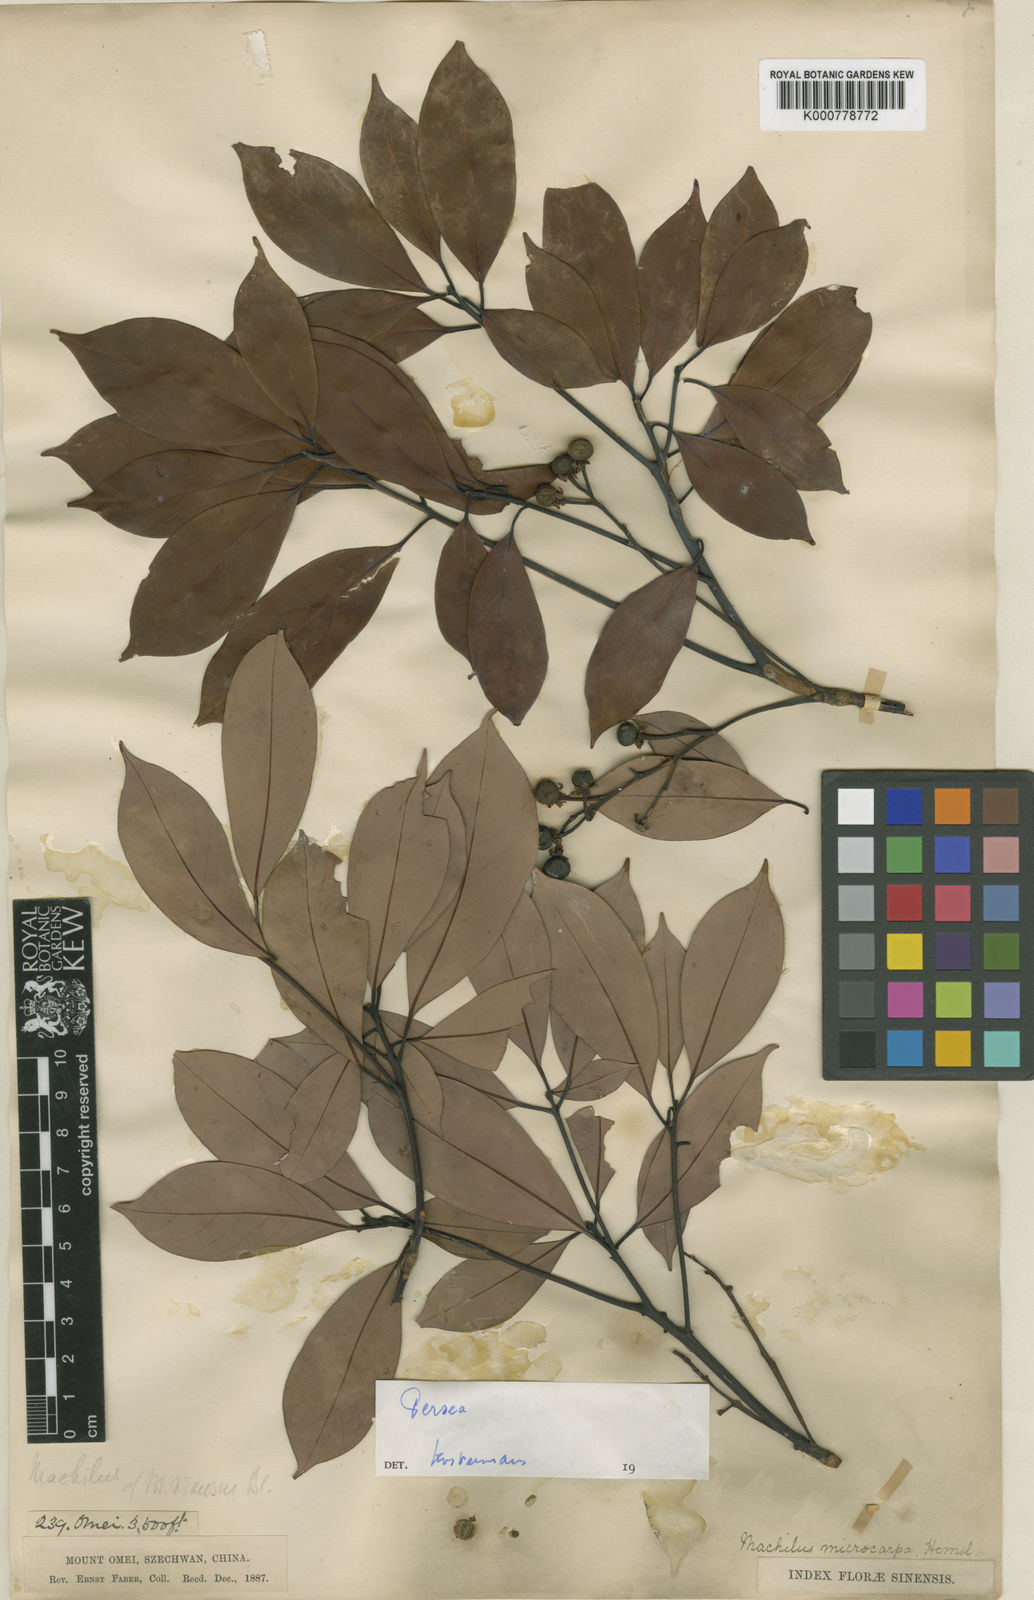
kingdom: Plantae
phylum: Tracheophyta
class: Magnoliopsida
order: Laurales
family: Lauraceae
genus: Machilus
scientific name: Machilus microcarpa
